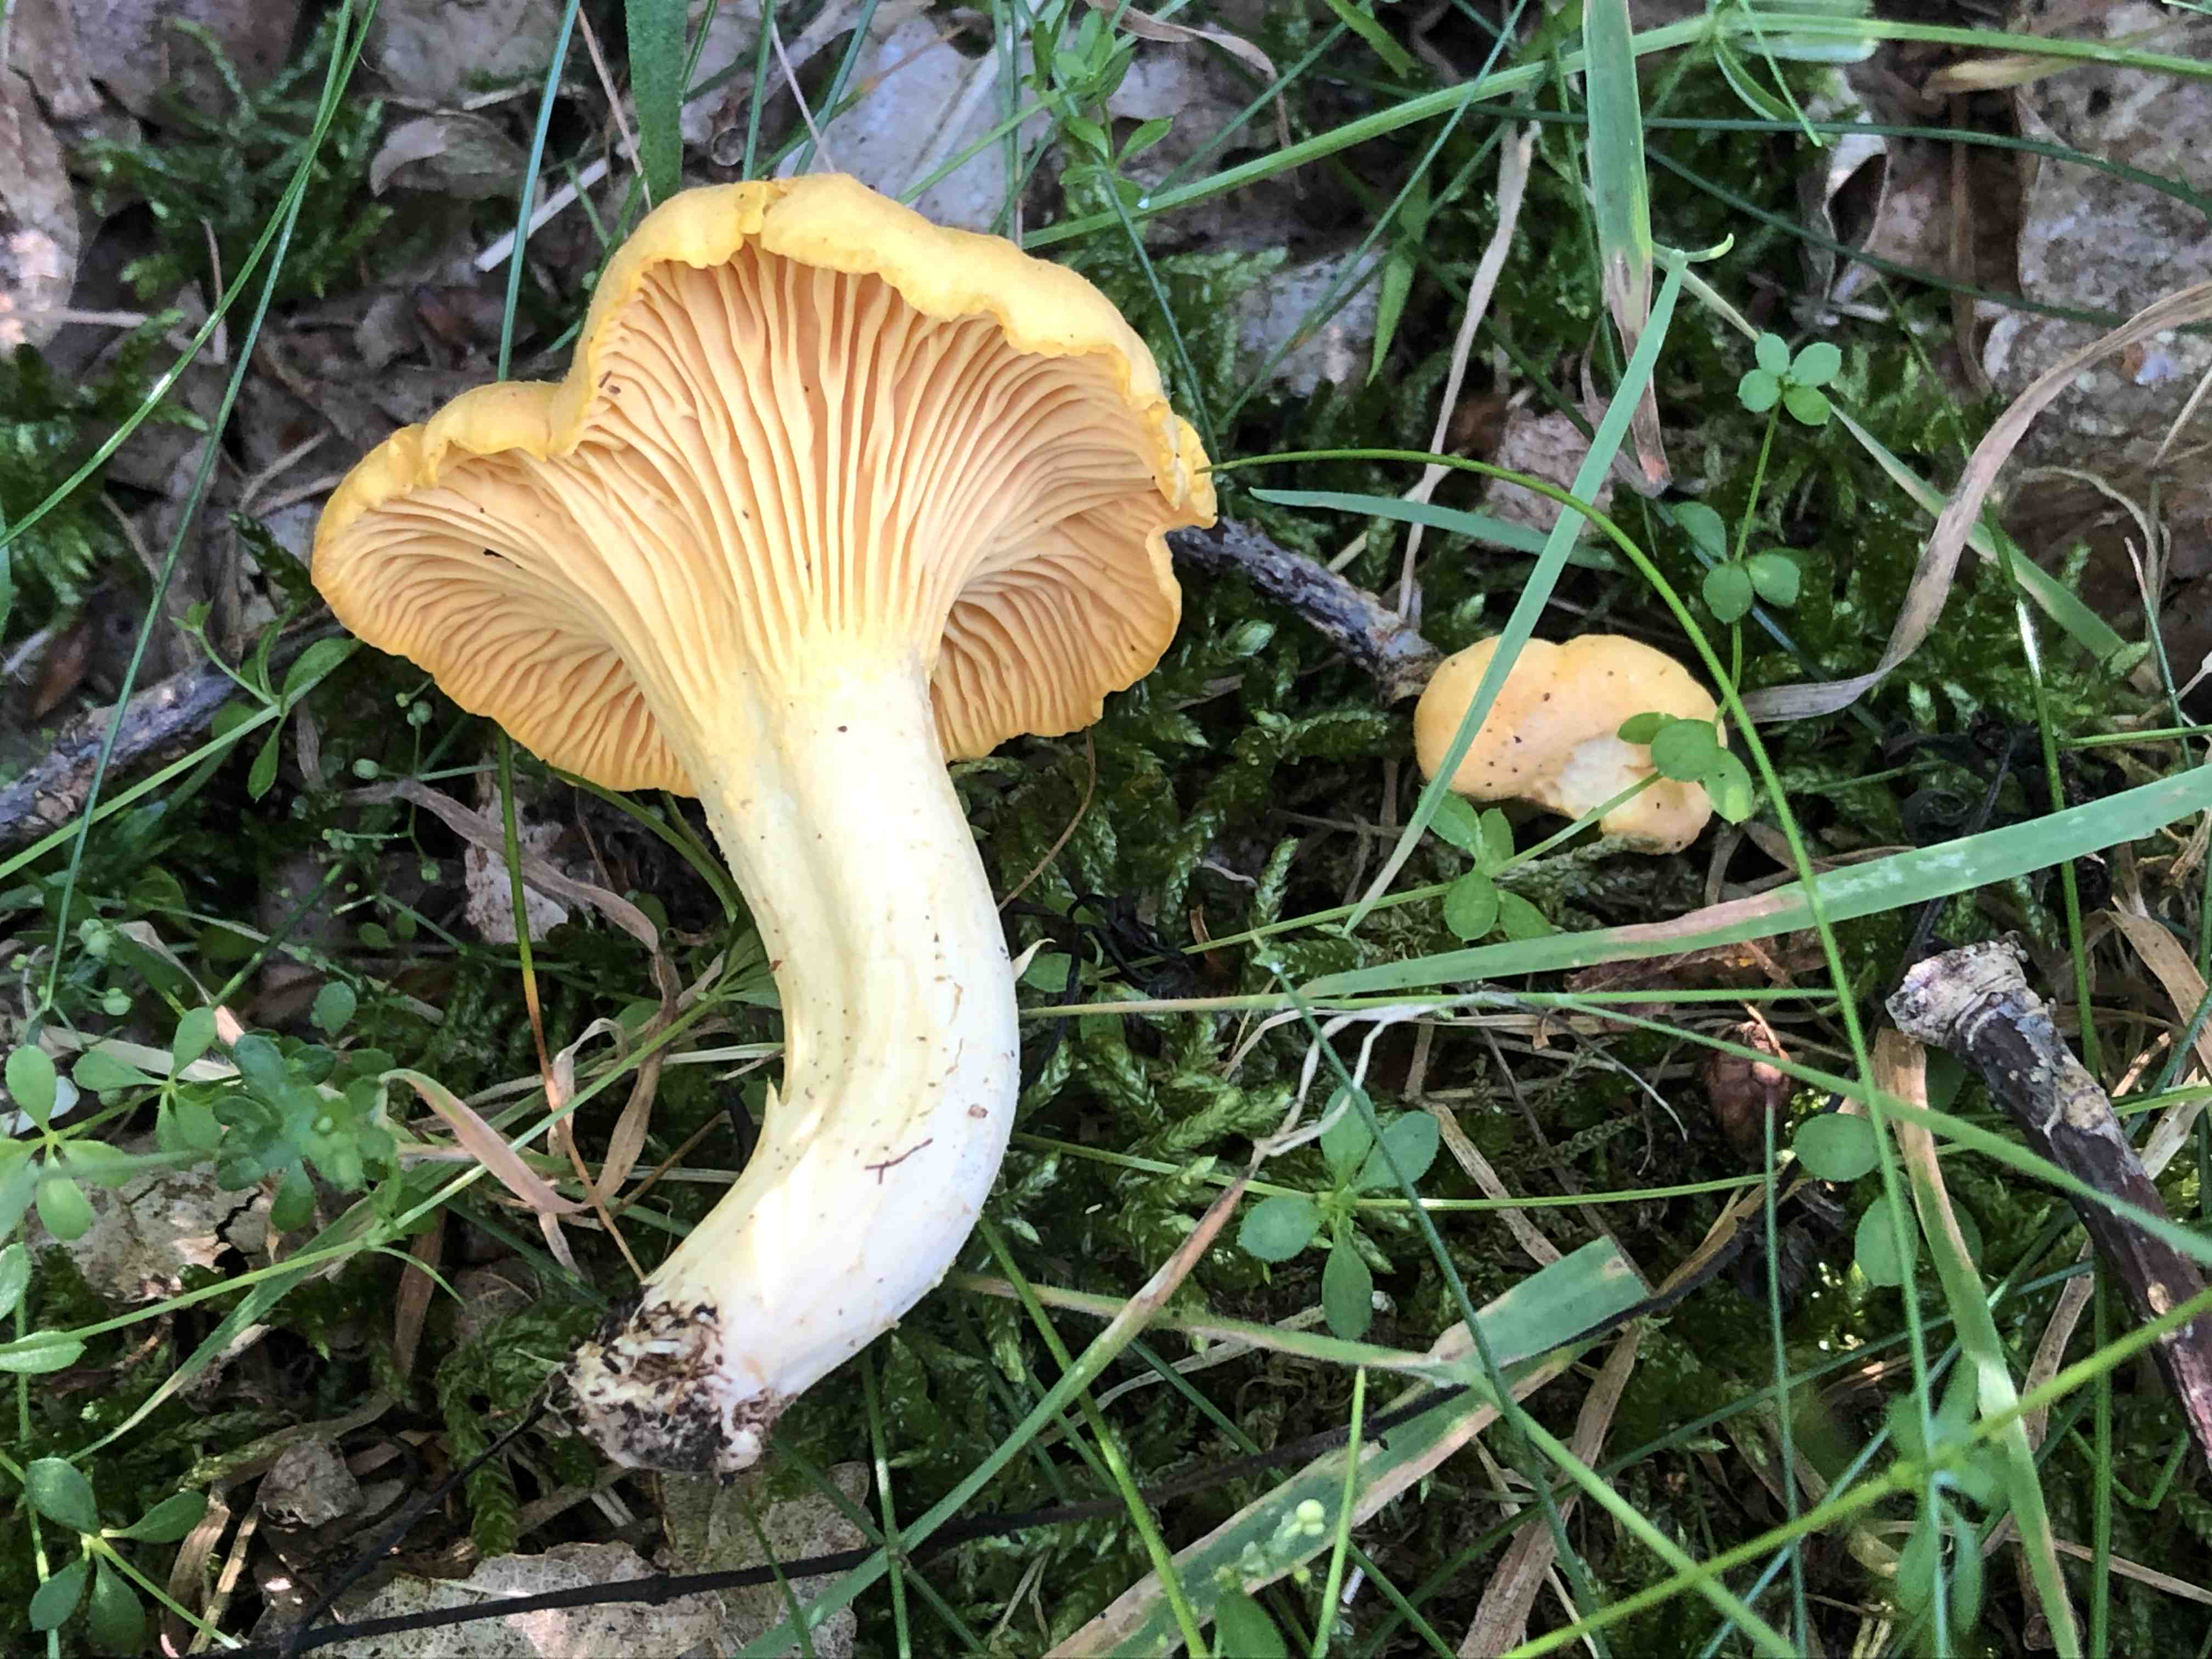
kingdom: Fungi
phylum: Basidiomycota
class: Agaricomycetes
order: Cantharellales
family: Hydnaceae
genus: Cantharellus
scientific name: Cantharellus cibarius
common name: almindelig kantarel
